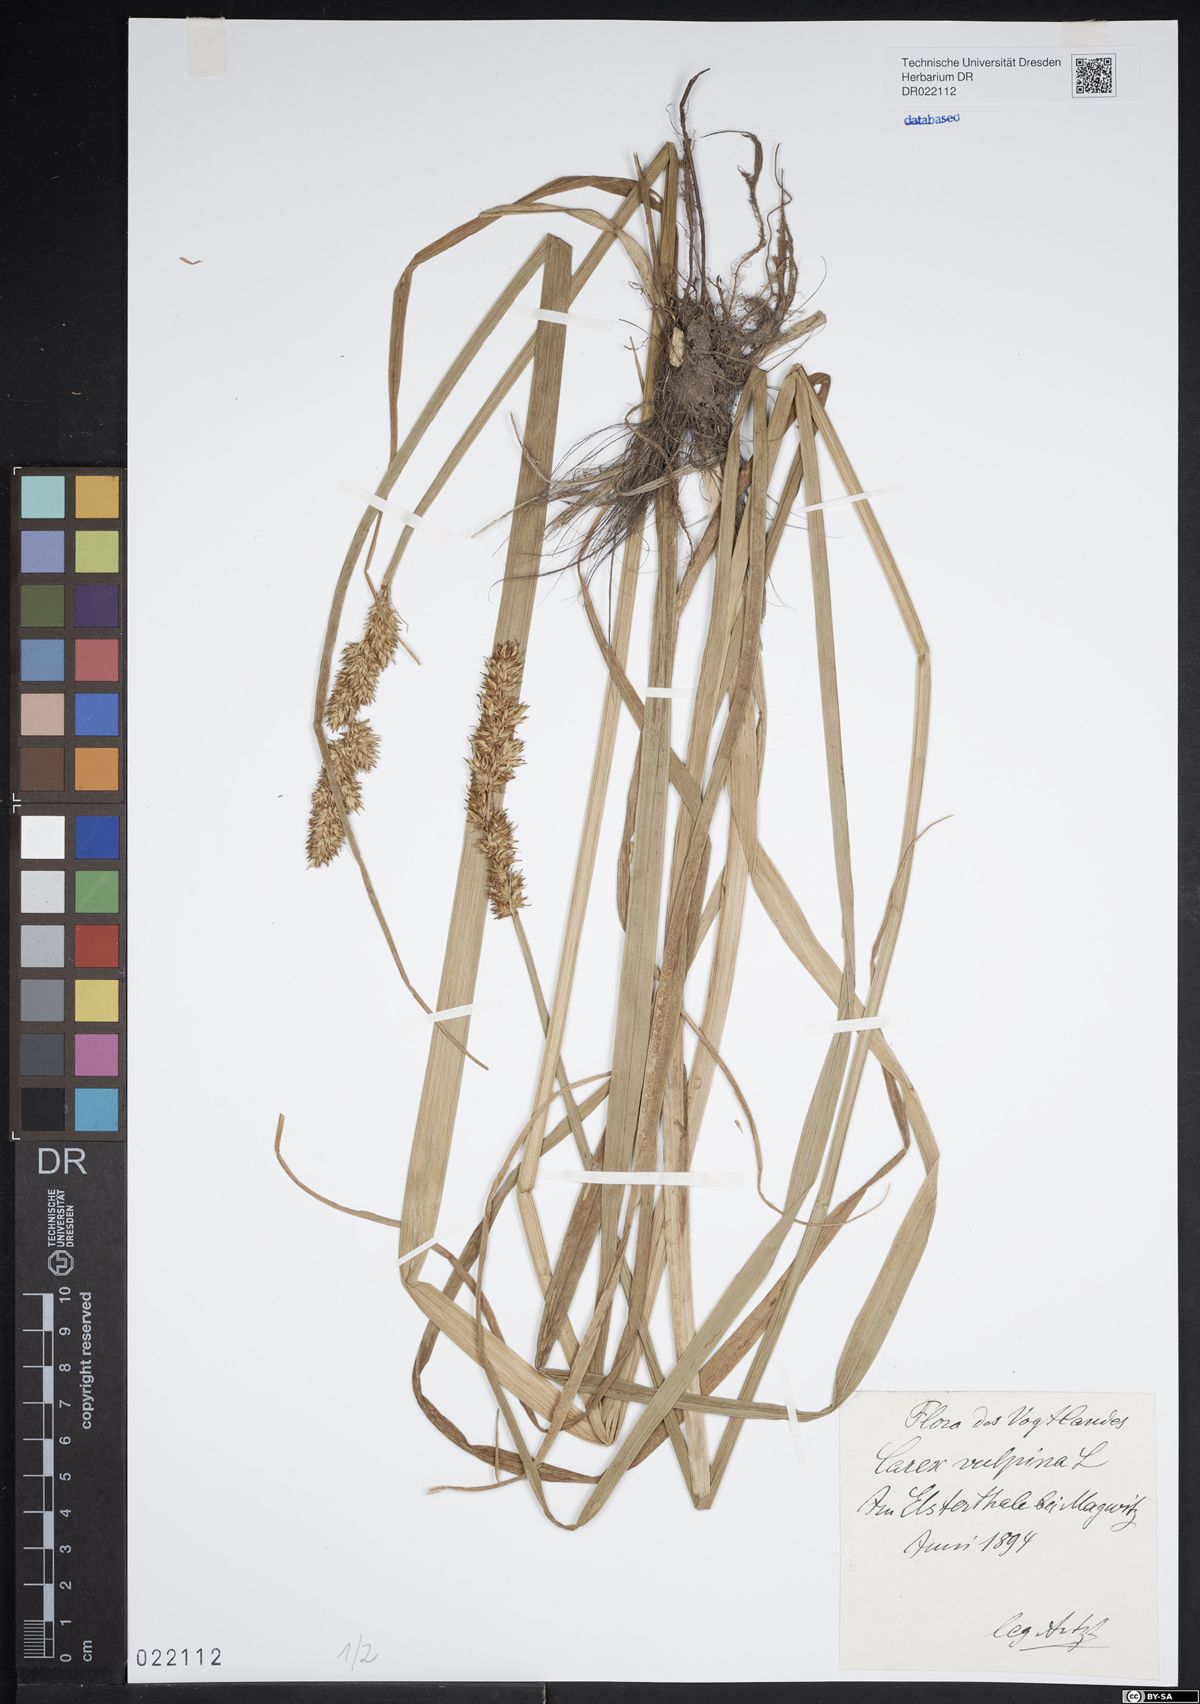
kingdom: Plantae
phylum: Tracheophyta
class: Liliopsida
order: Poales
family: Cyperaceae
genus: Carex
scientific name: Carex vulpina
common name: True fox-sedge
